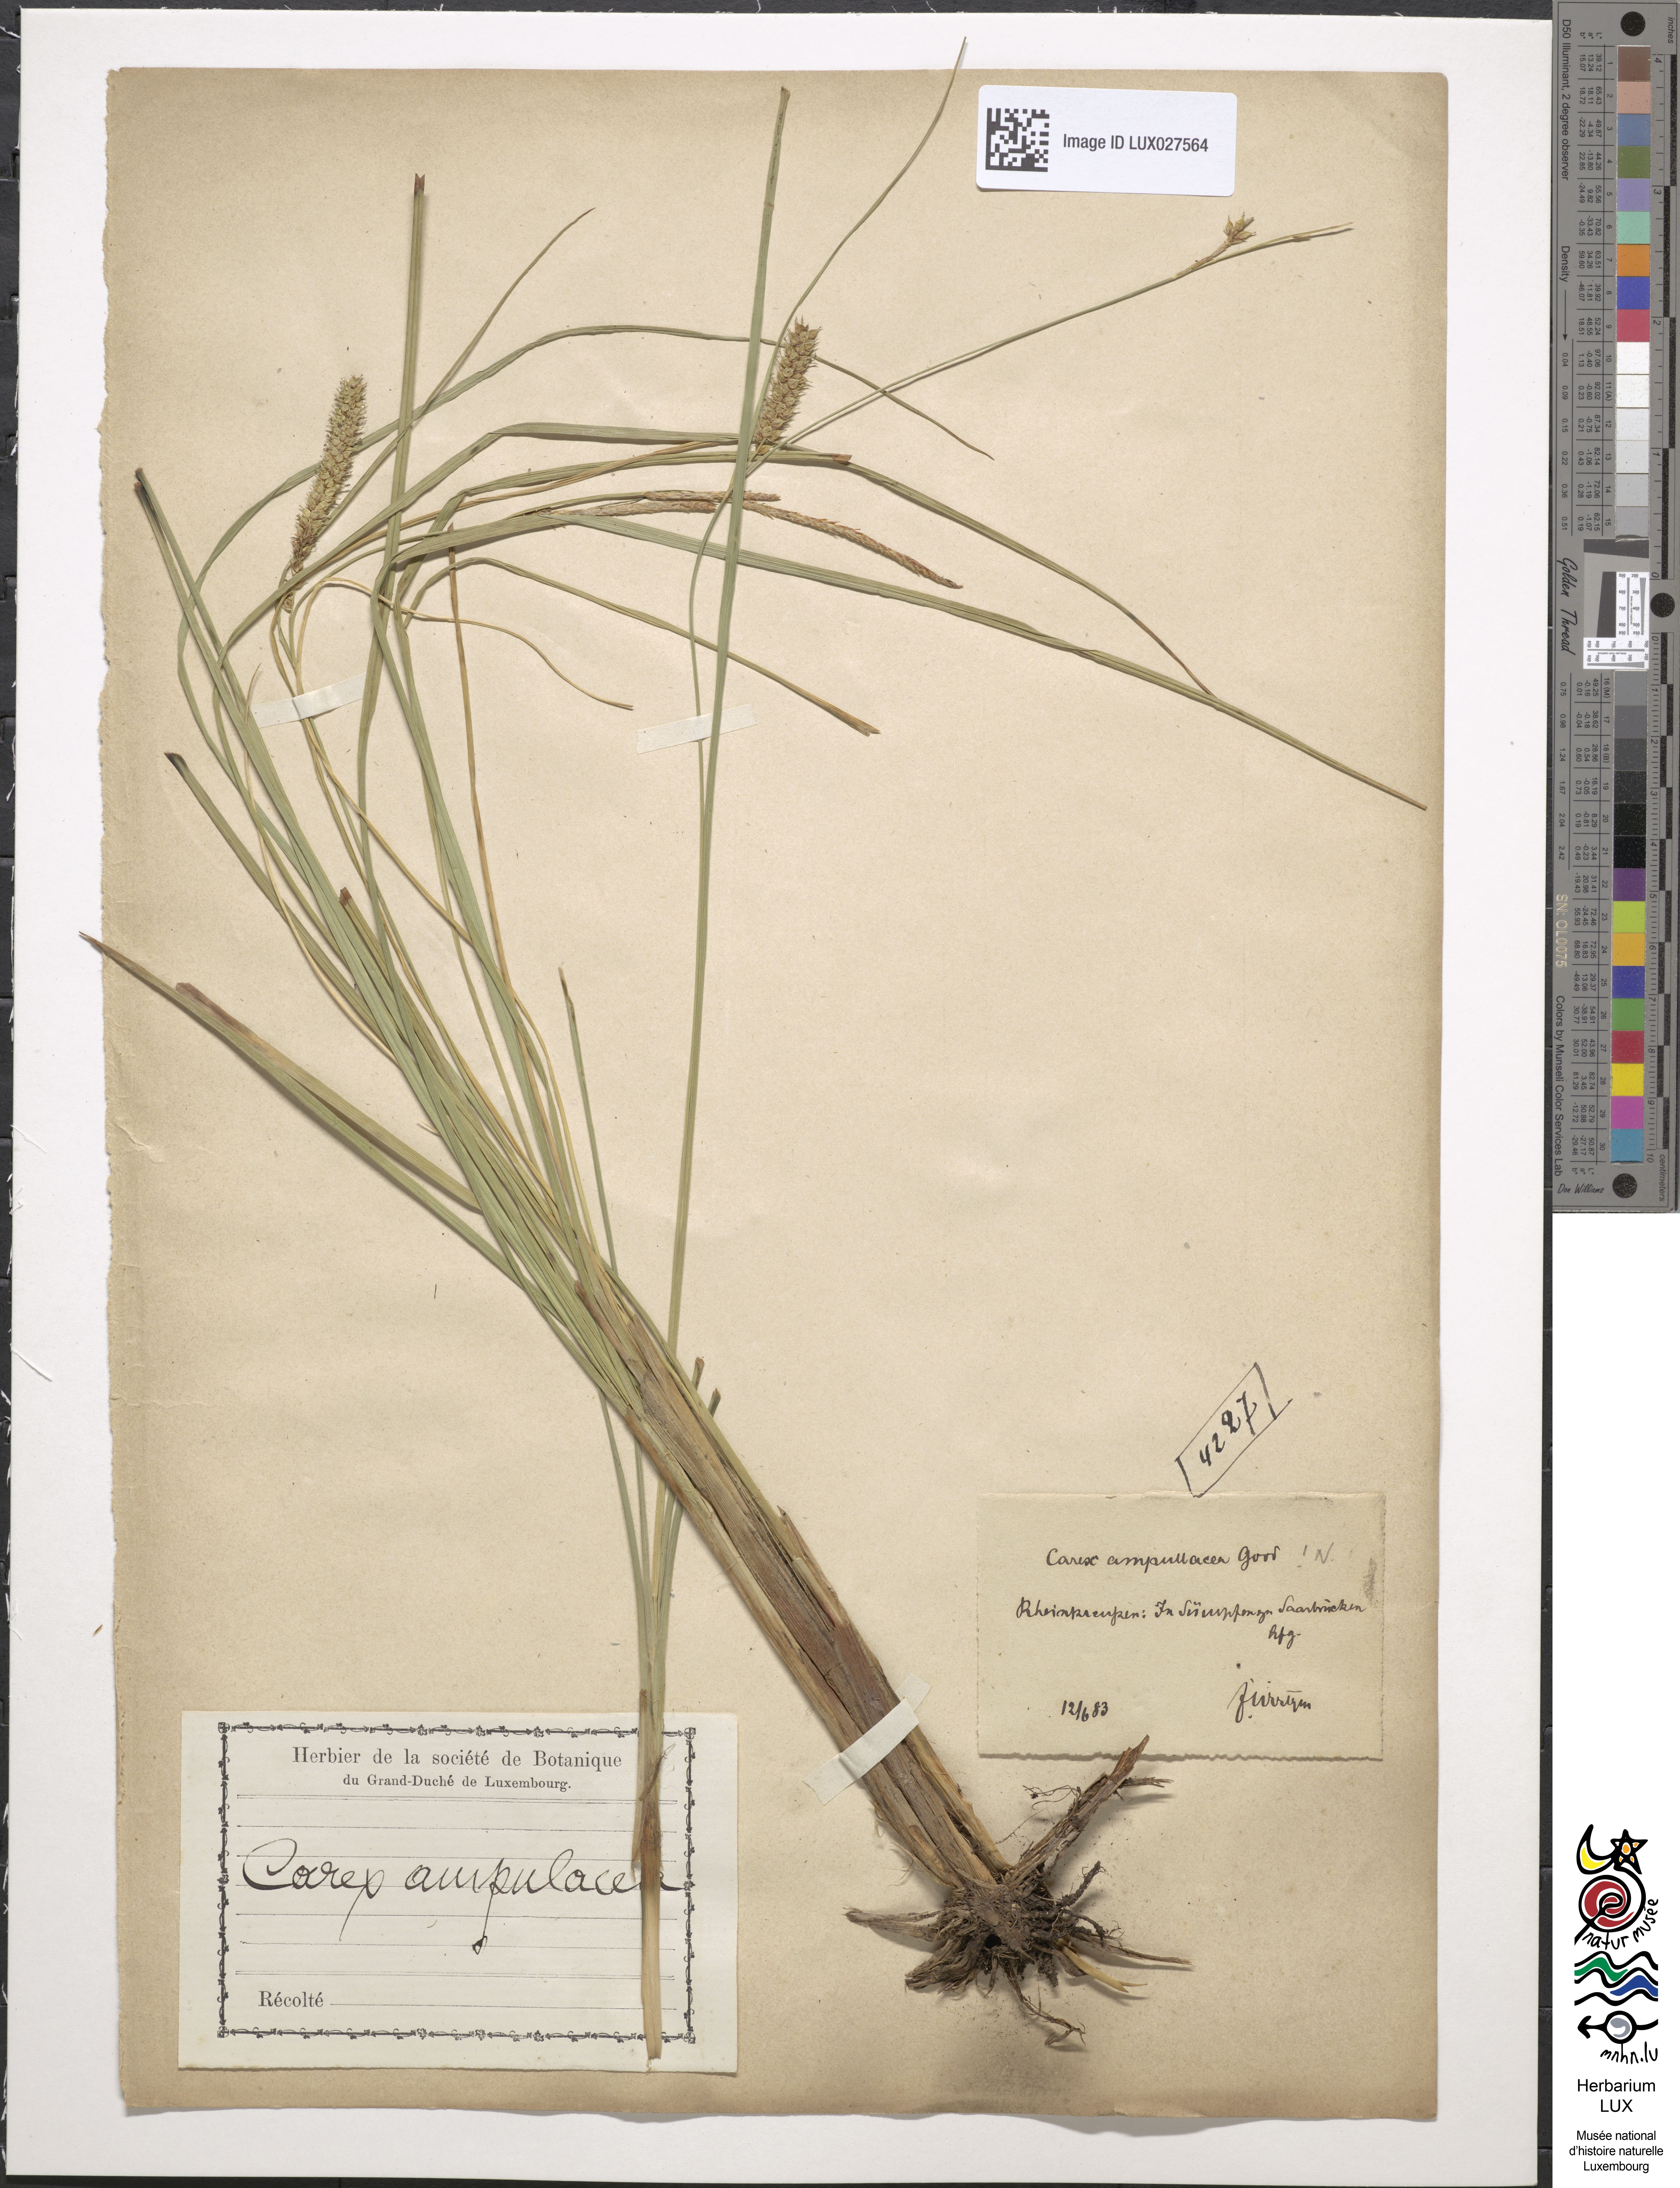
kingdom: Plantae
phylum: Tracheophyta
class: Liliopsida
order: Poales
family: Cyperaceae
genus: Carex
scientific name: Carex rostrata
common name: Bottle sedge
